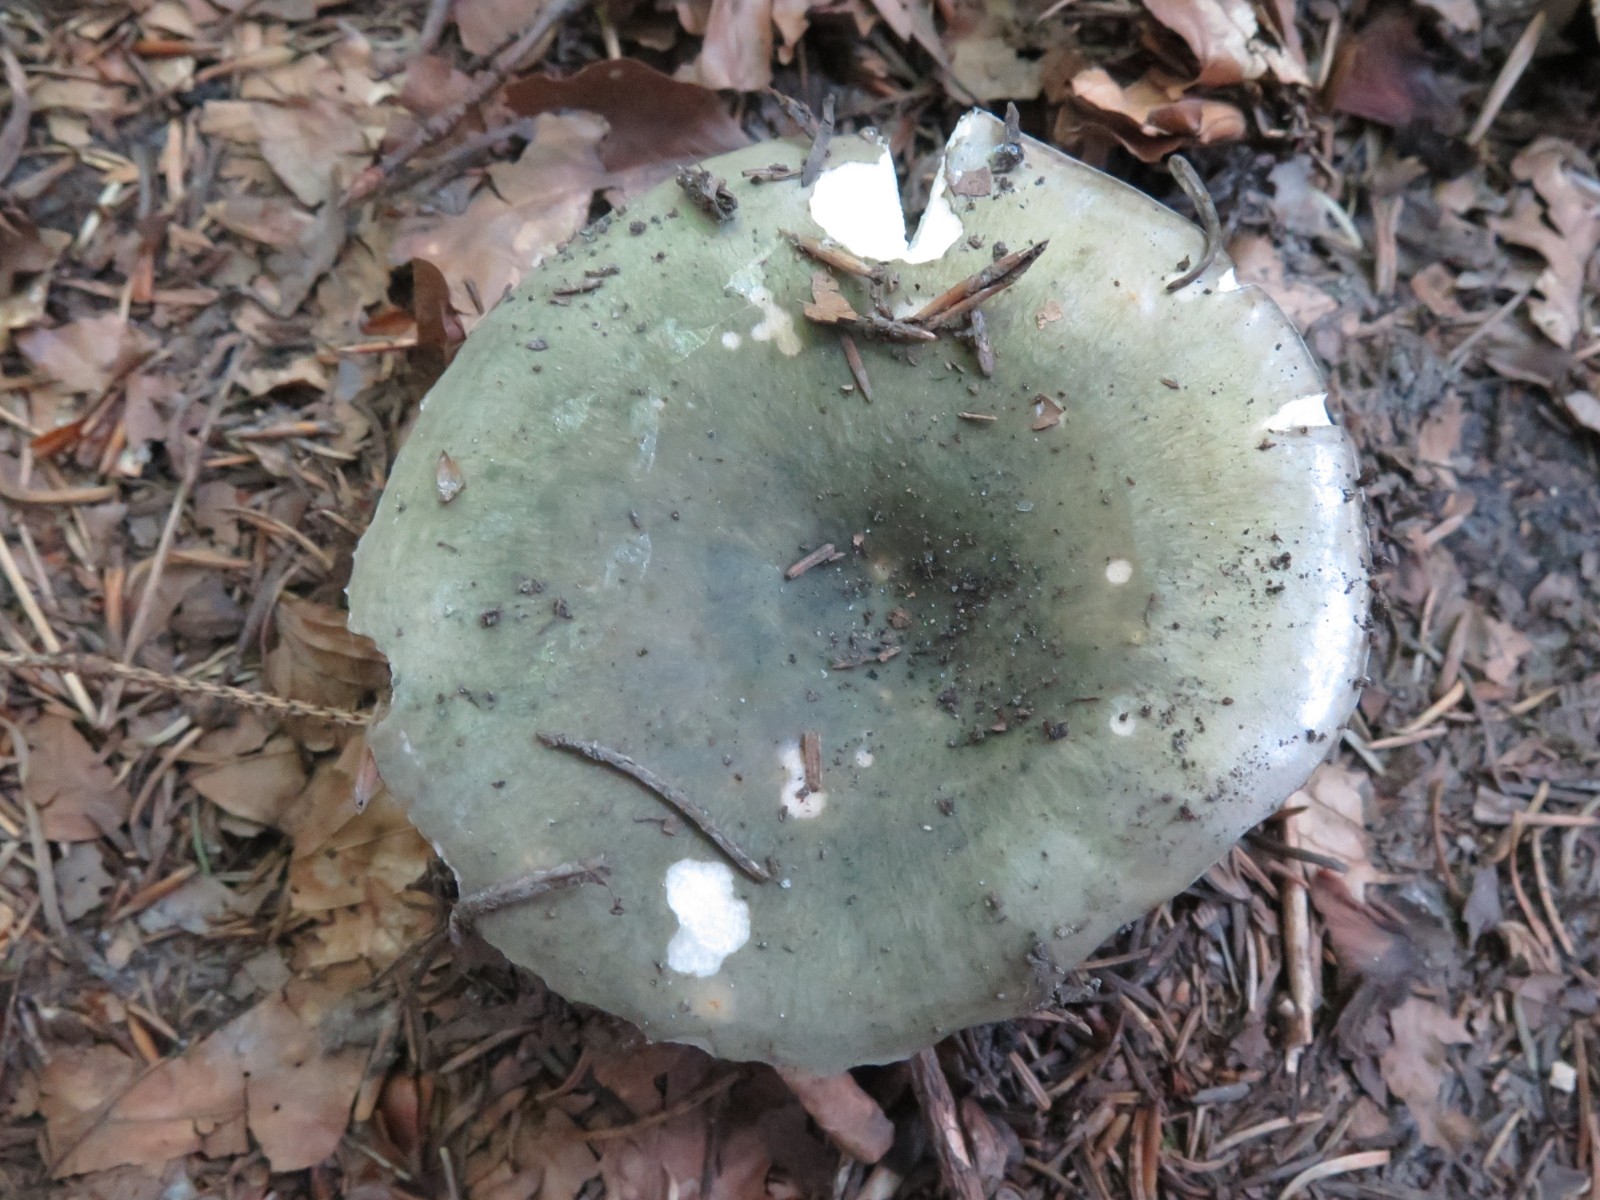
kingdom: Fungi
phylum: Basidiomycota
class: Agaricomycetes
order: Russulales
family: Russulaceae
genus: Russula
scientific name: Russula aeruginea
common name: græsgrøn skørhat
